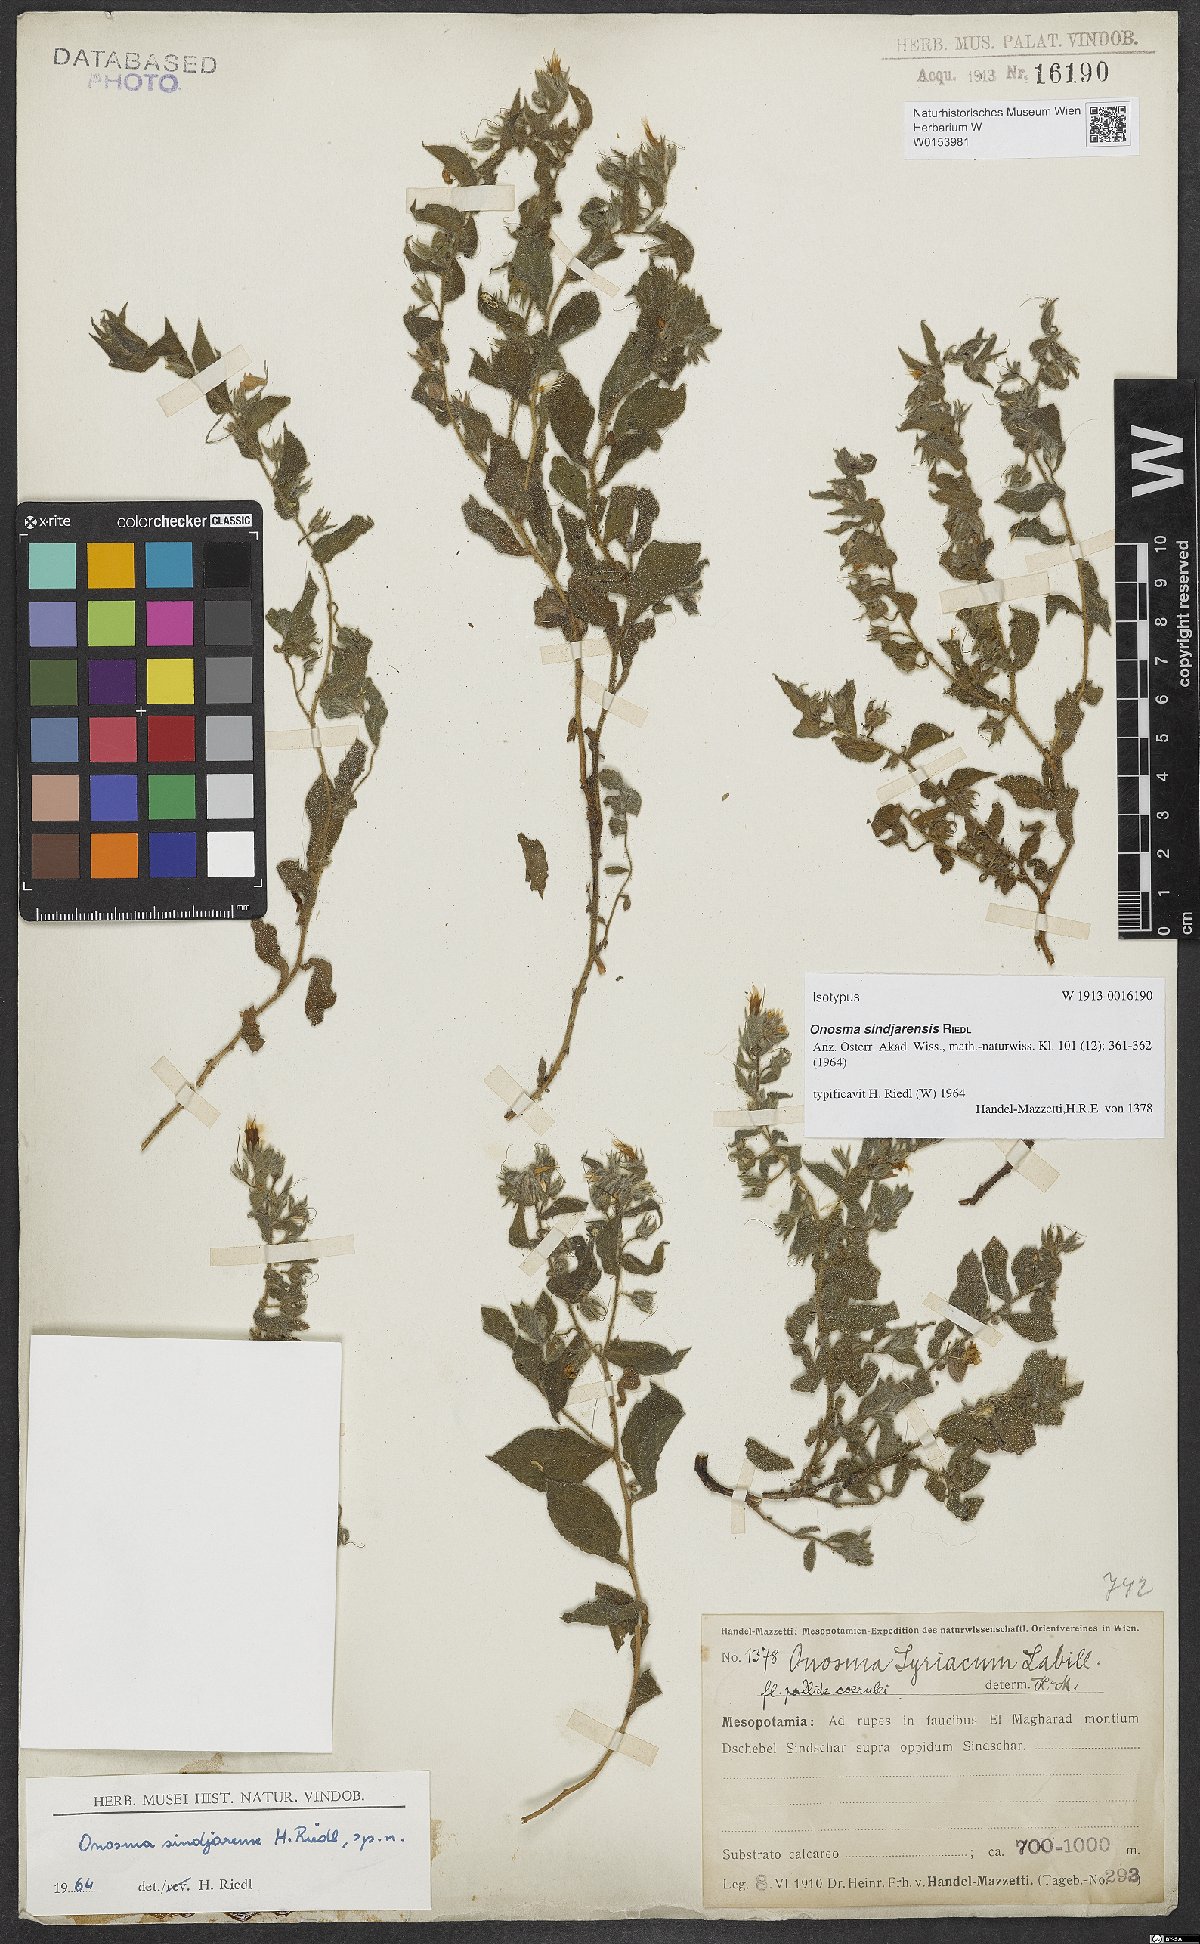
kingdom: Plantae
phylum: Tracheophyta
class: Magnoliopsida
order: Boraginales
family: Boraginaceae
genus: Podonosma
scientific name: Podonosma sindjarensis
